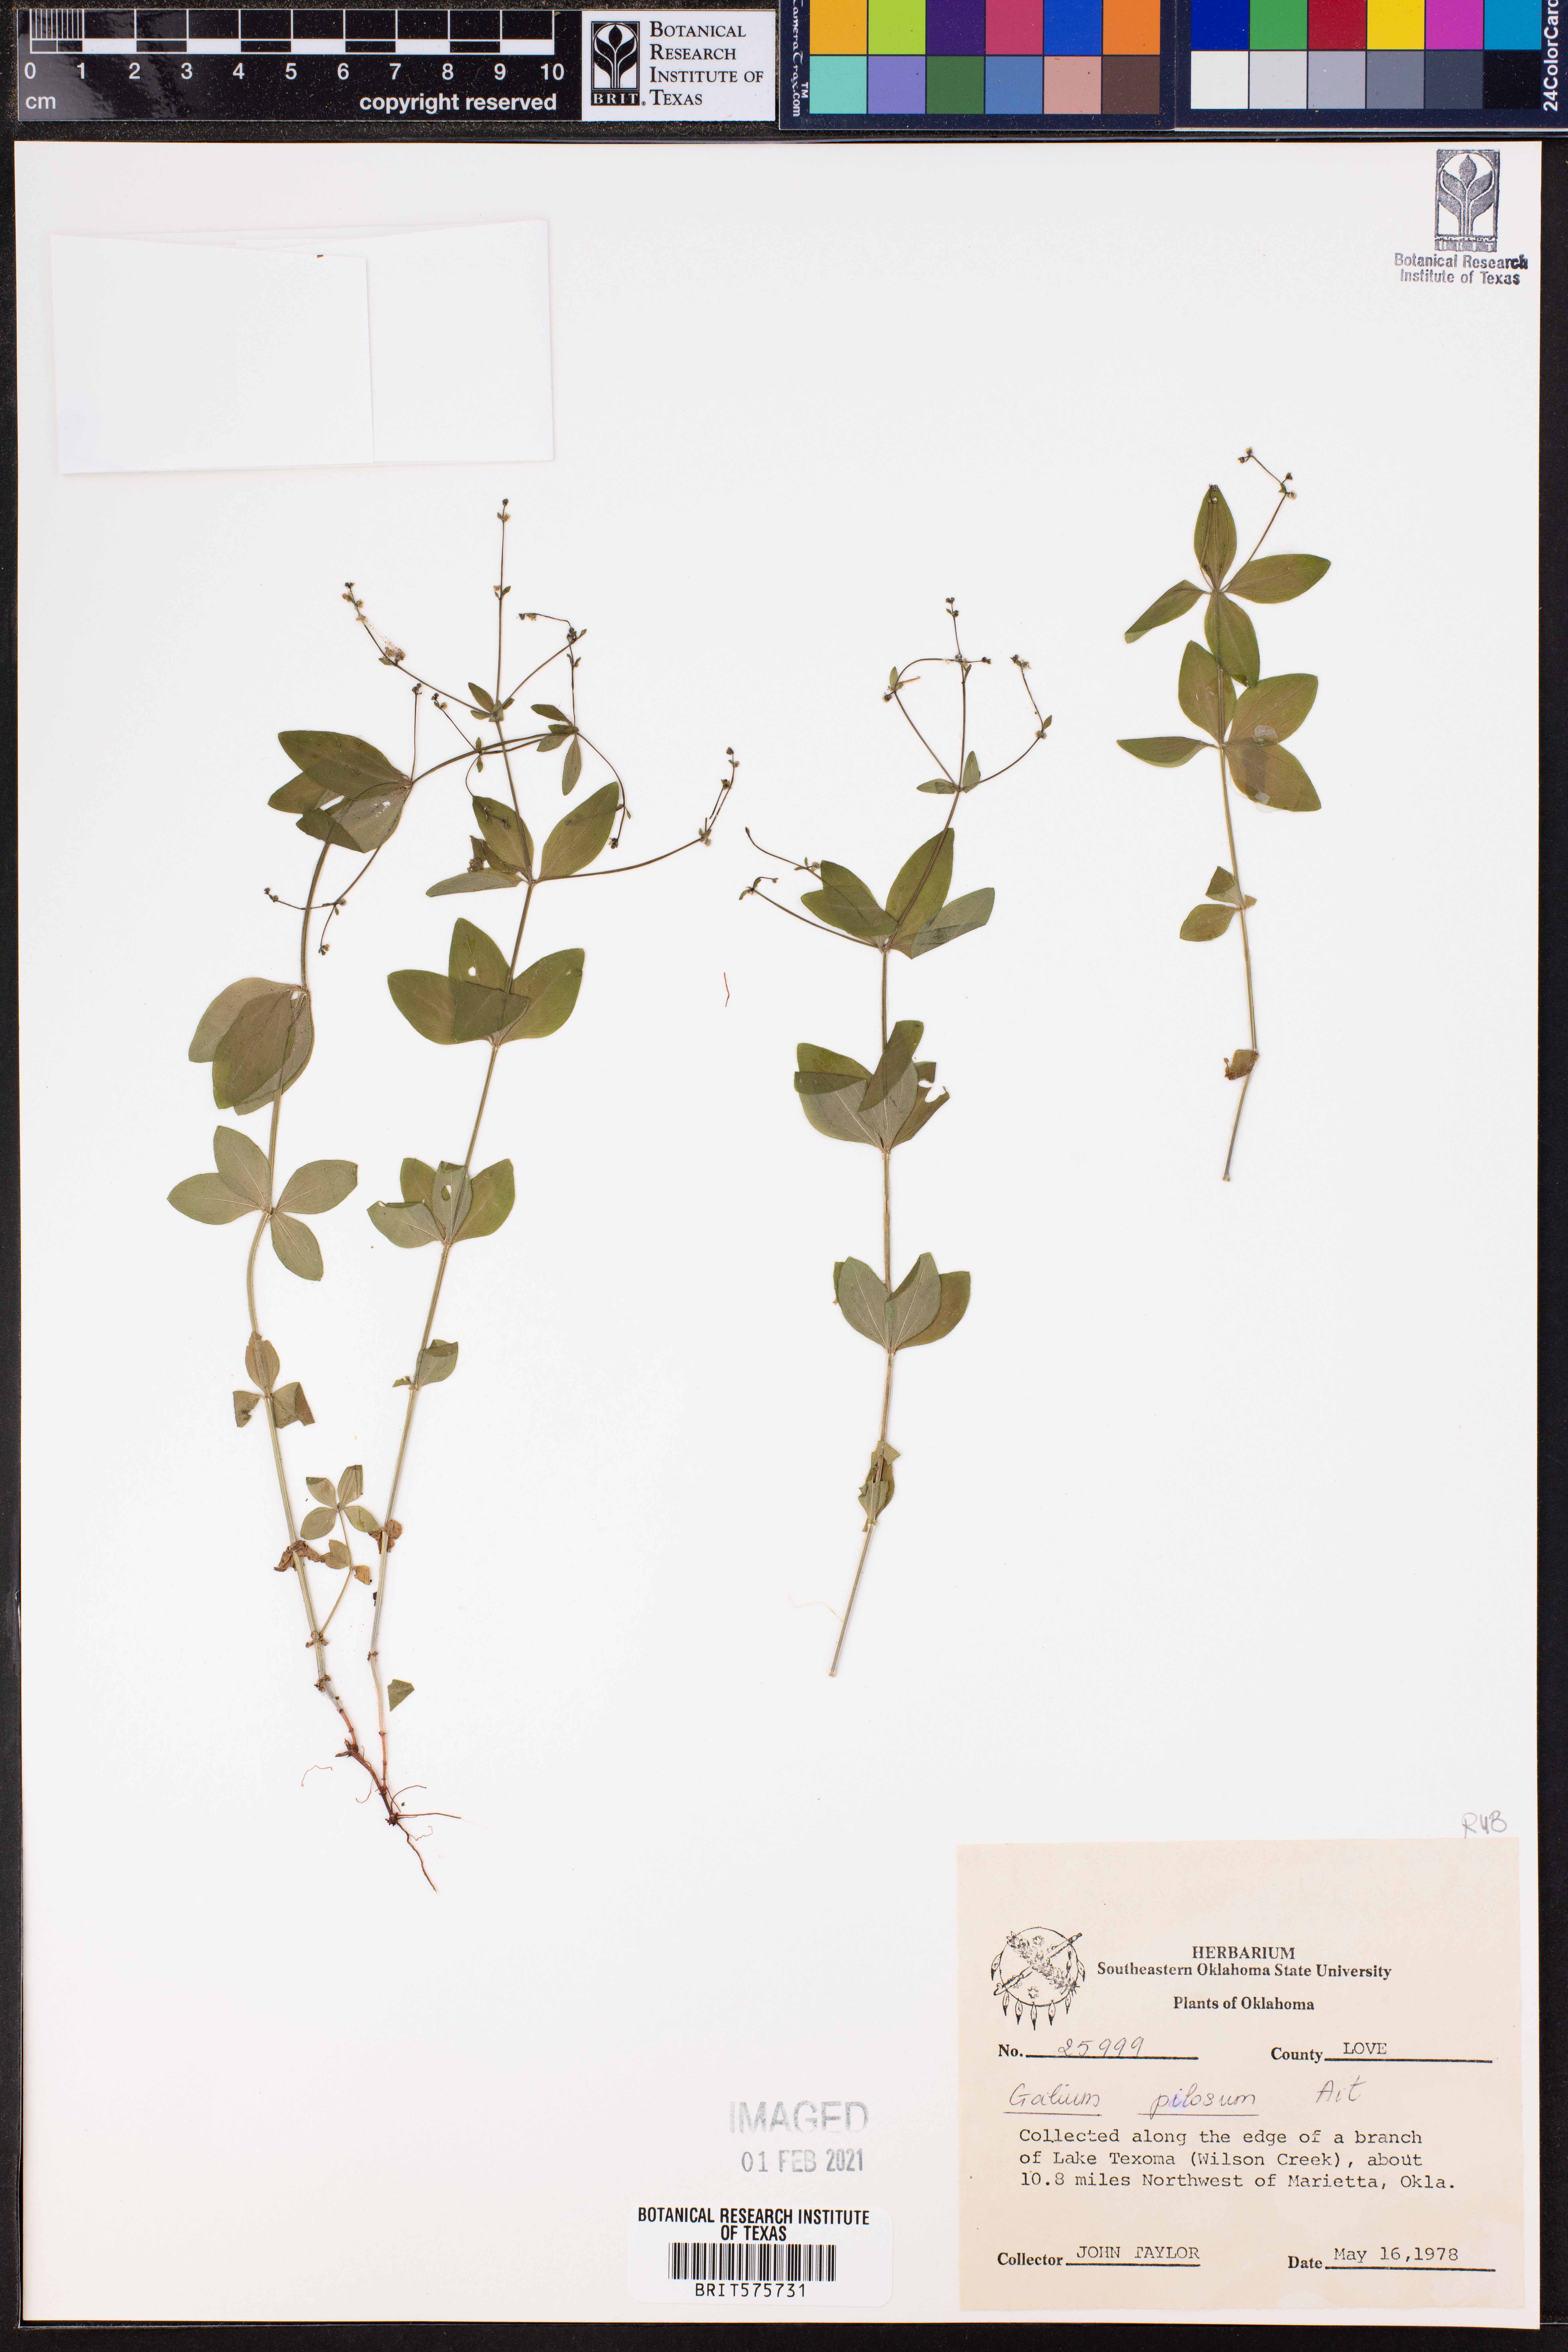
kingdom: Plantae
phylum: Tracheophyta
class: Magnoliopsida
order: Gentianales
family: Rubiaceae
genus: Galium
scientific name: Galium pilosum
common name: Hairy bedstraw
